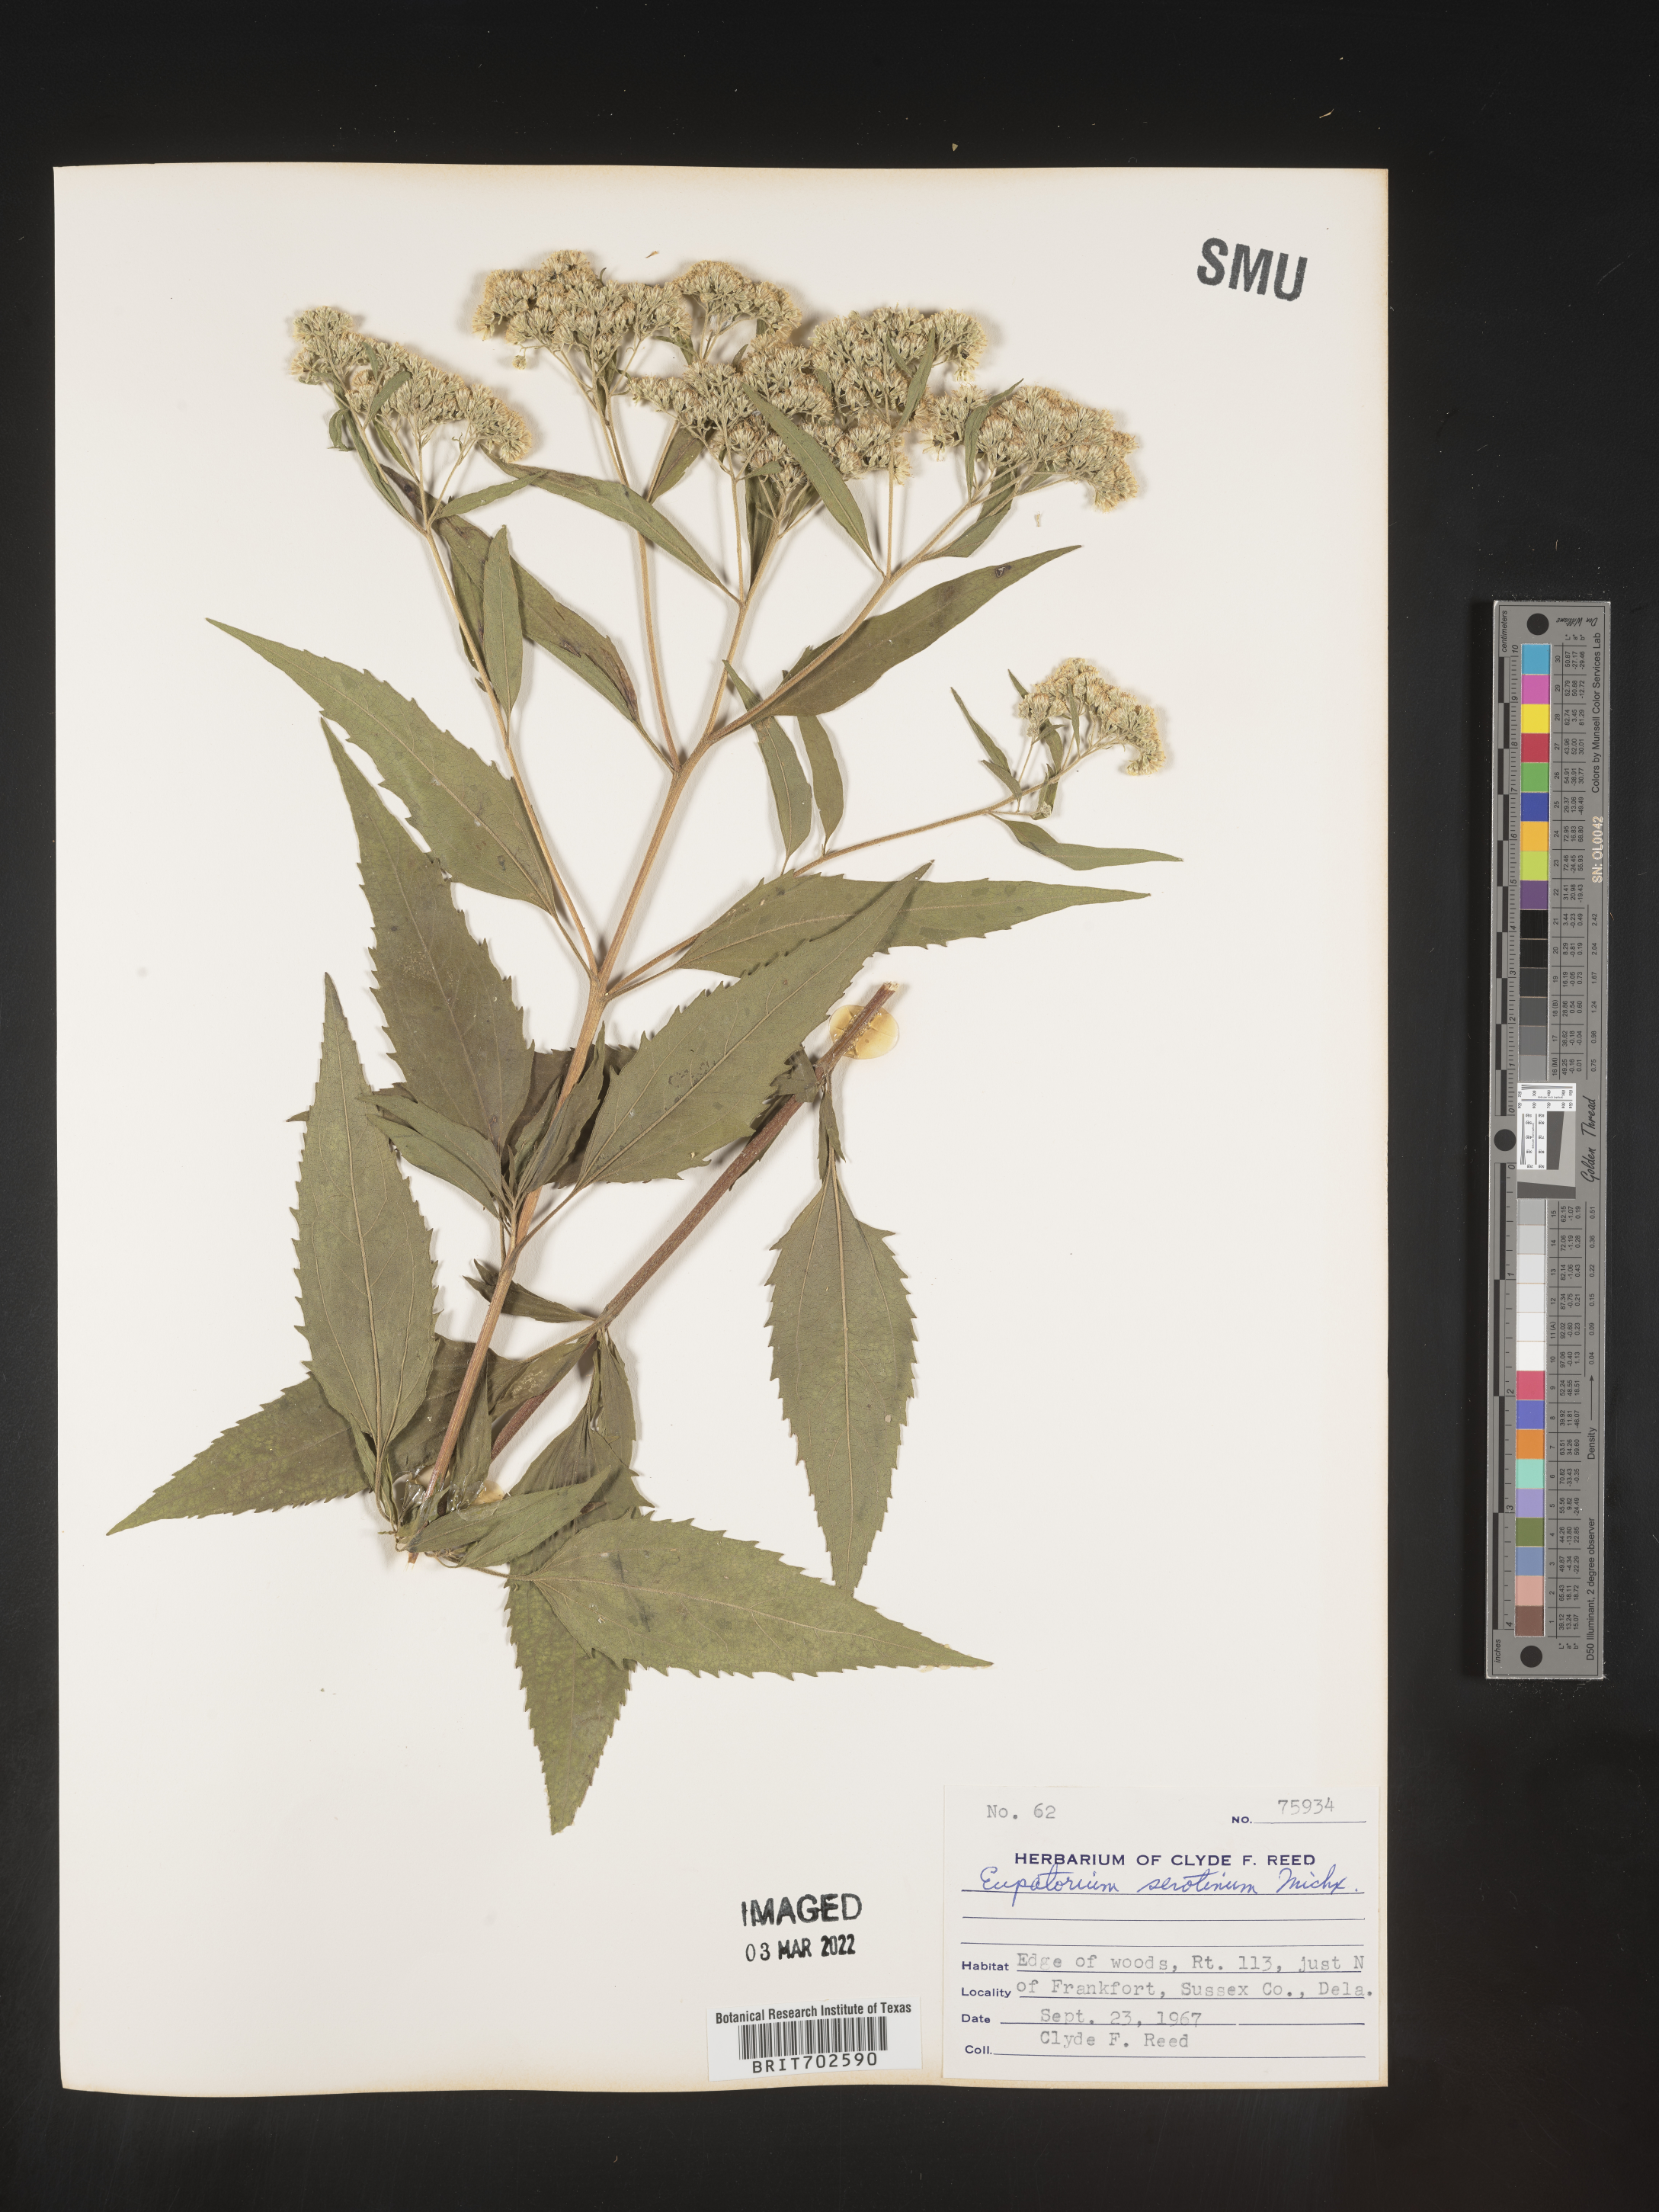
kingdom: Plantae
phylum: Tracheophyta
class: Magnoliopsida
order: Asterales
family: Asteraceae
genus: Eupatorium
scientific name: Eupatorium serotinum
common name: Late boneset
